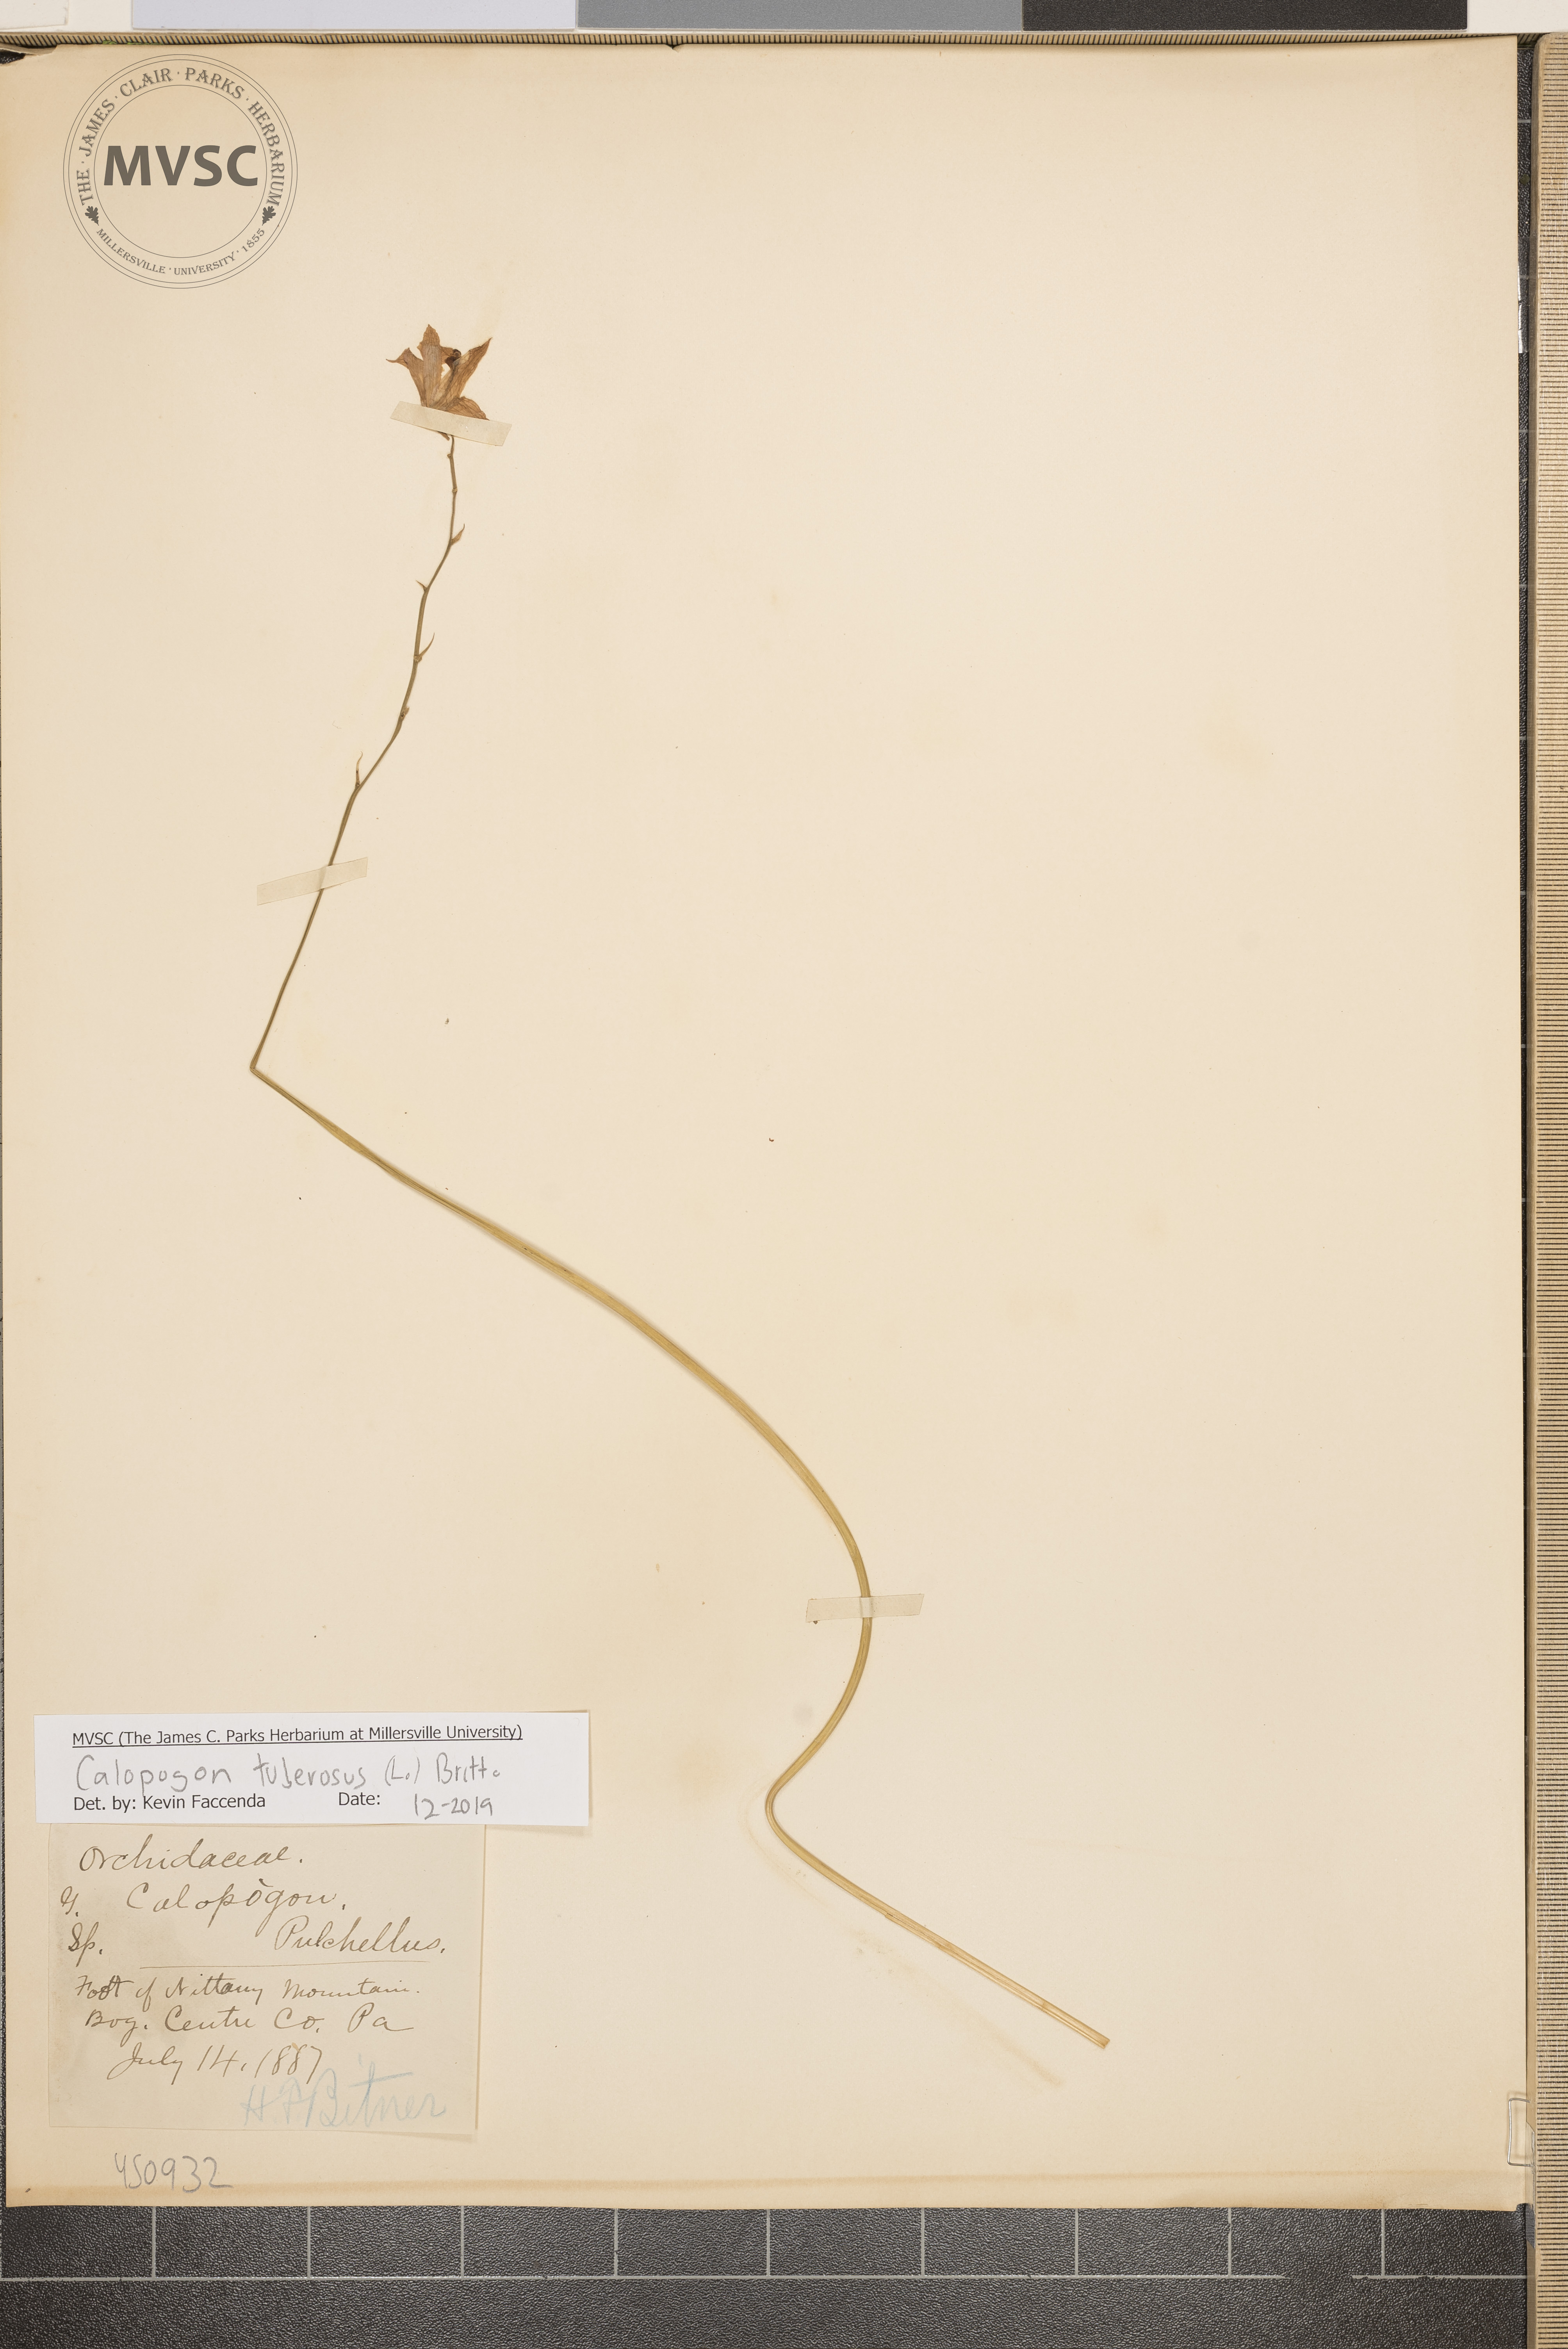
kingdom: Plantae
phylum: Tracheophyta
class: Liliopsida
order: Asparagales
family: Orchidaceae
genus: Calopogon
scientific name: Calopogon tuberosus
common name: Grass-pink
